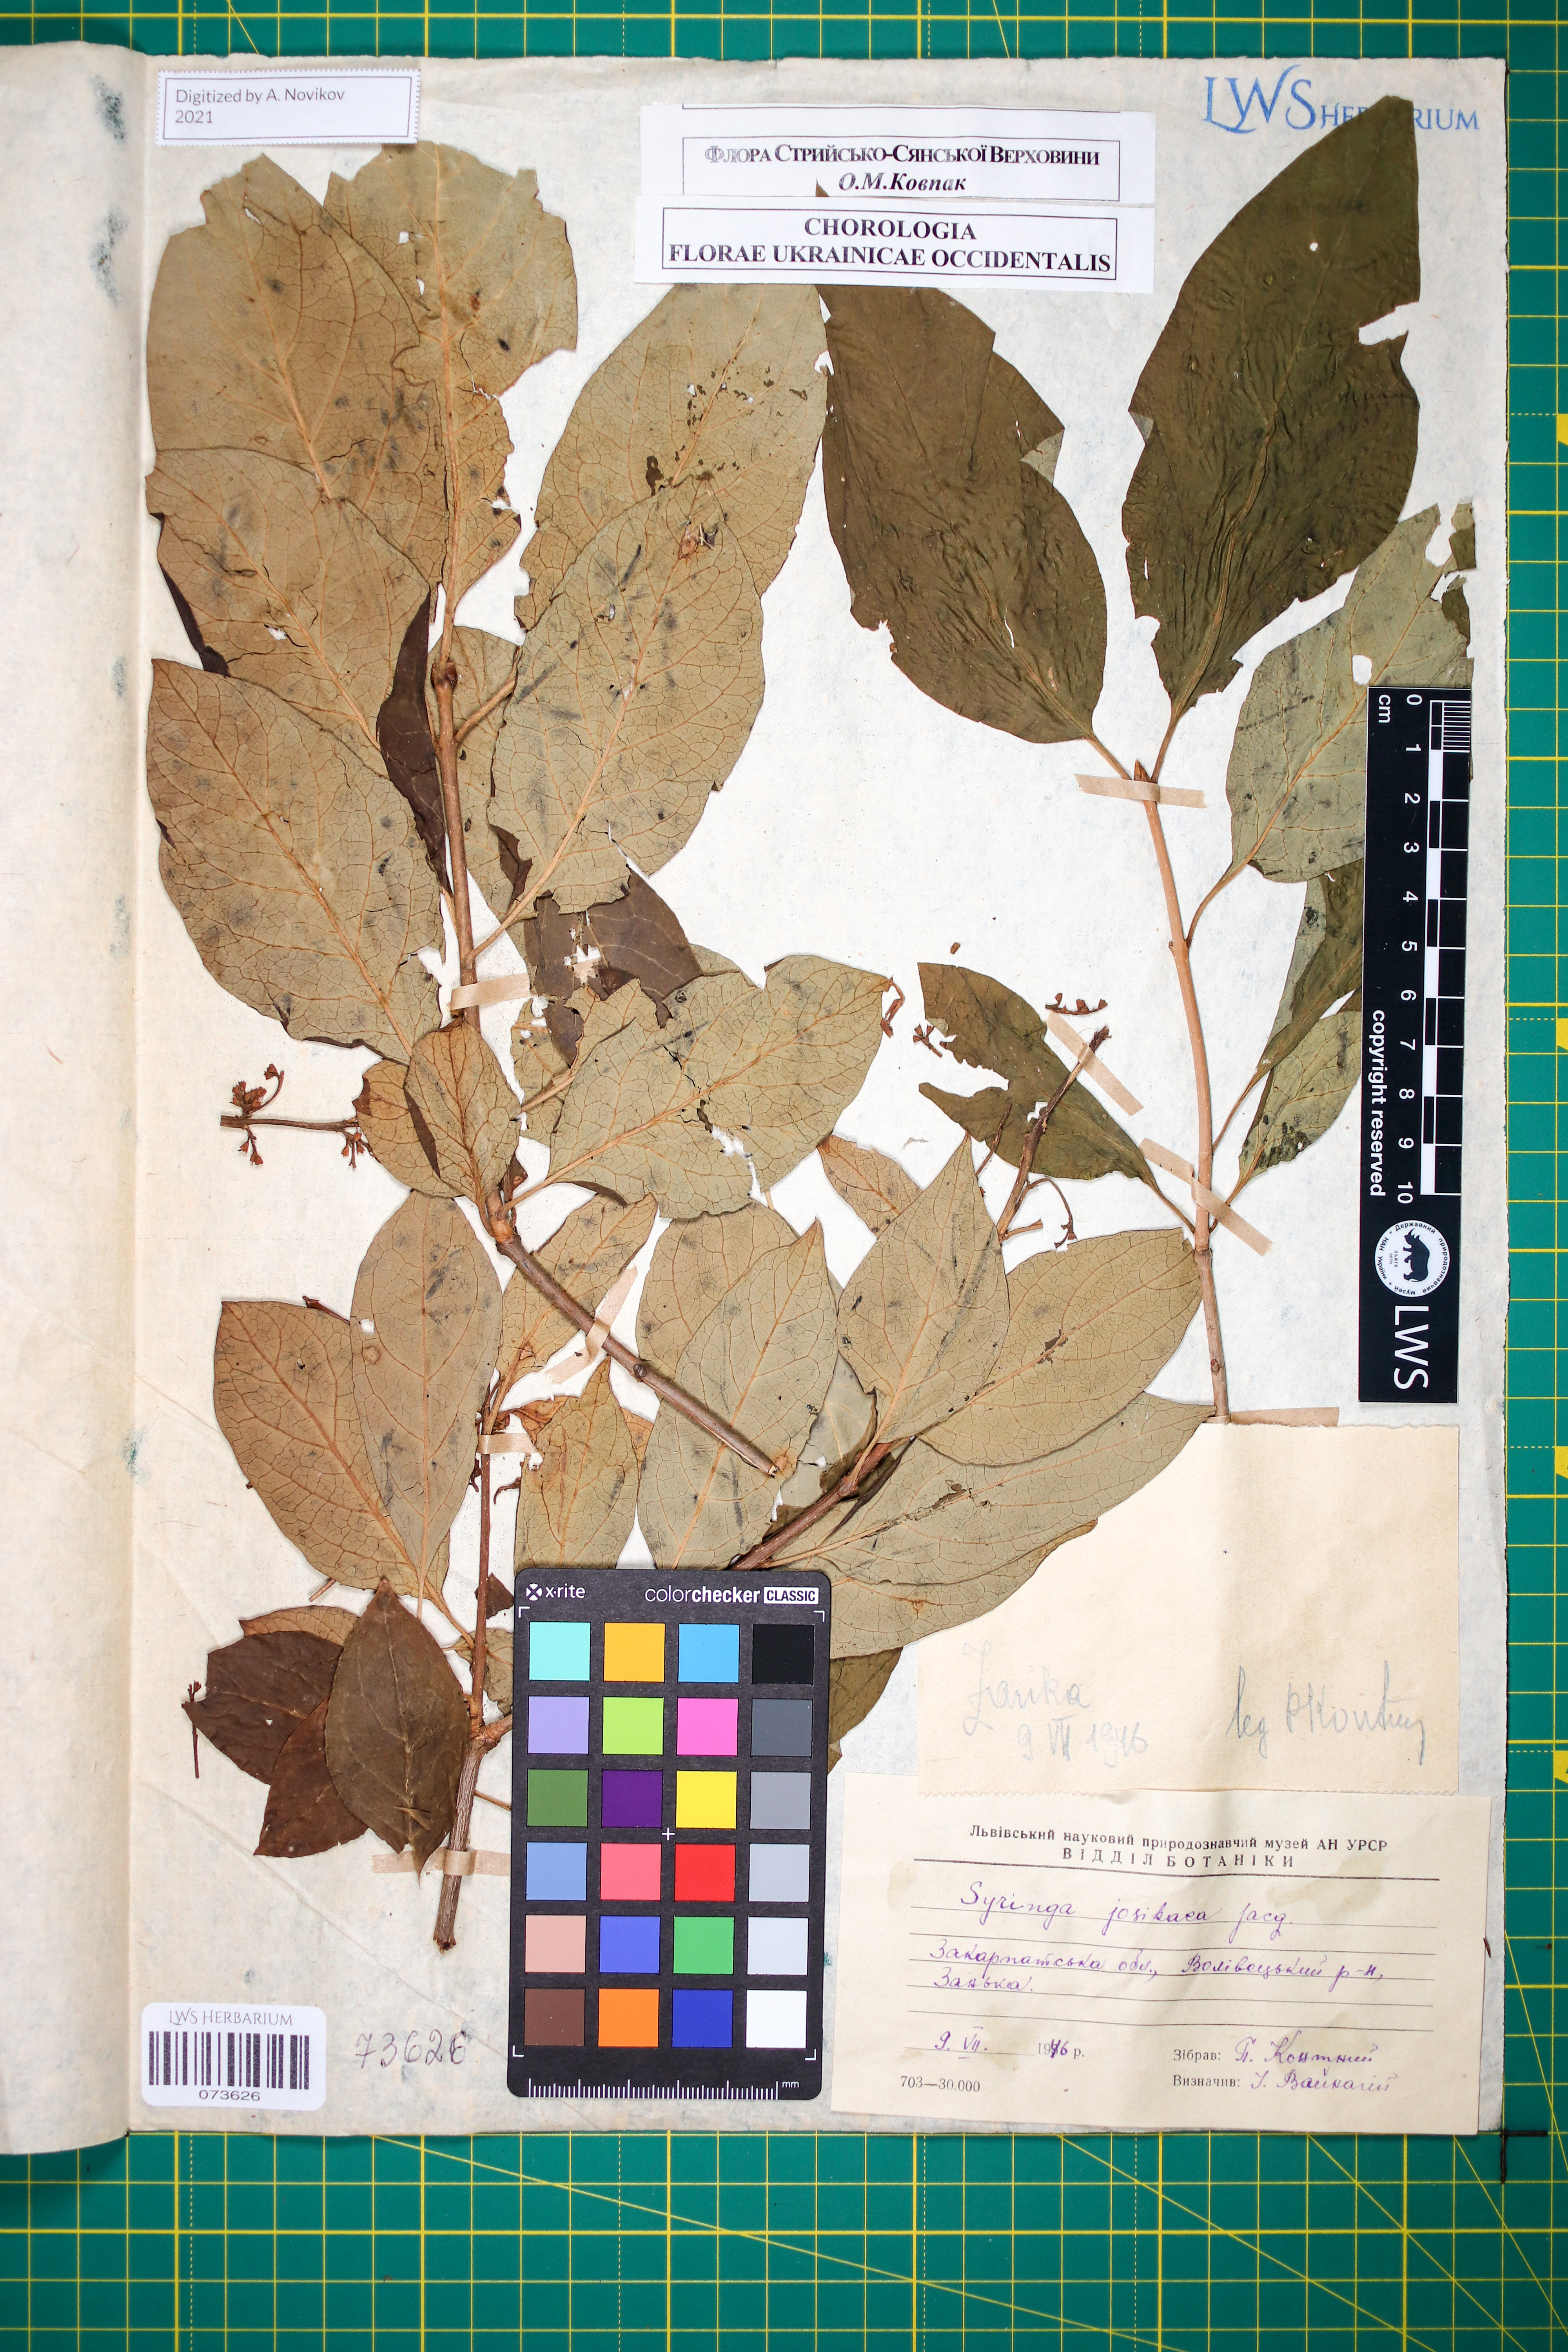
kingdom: Plantae
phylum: Tracheophyta
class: Magnoliopsida
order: Lamiales
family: Oleaceae
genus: Syringa
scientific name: Syringa josikaea
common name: Hungarian lilac
